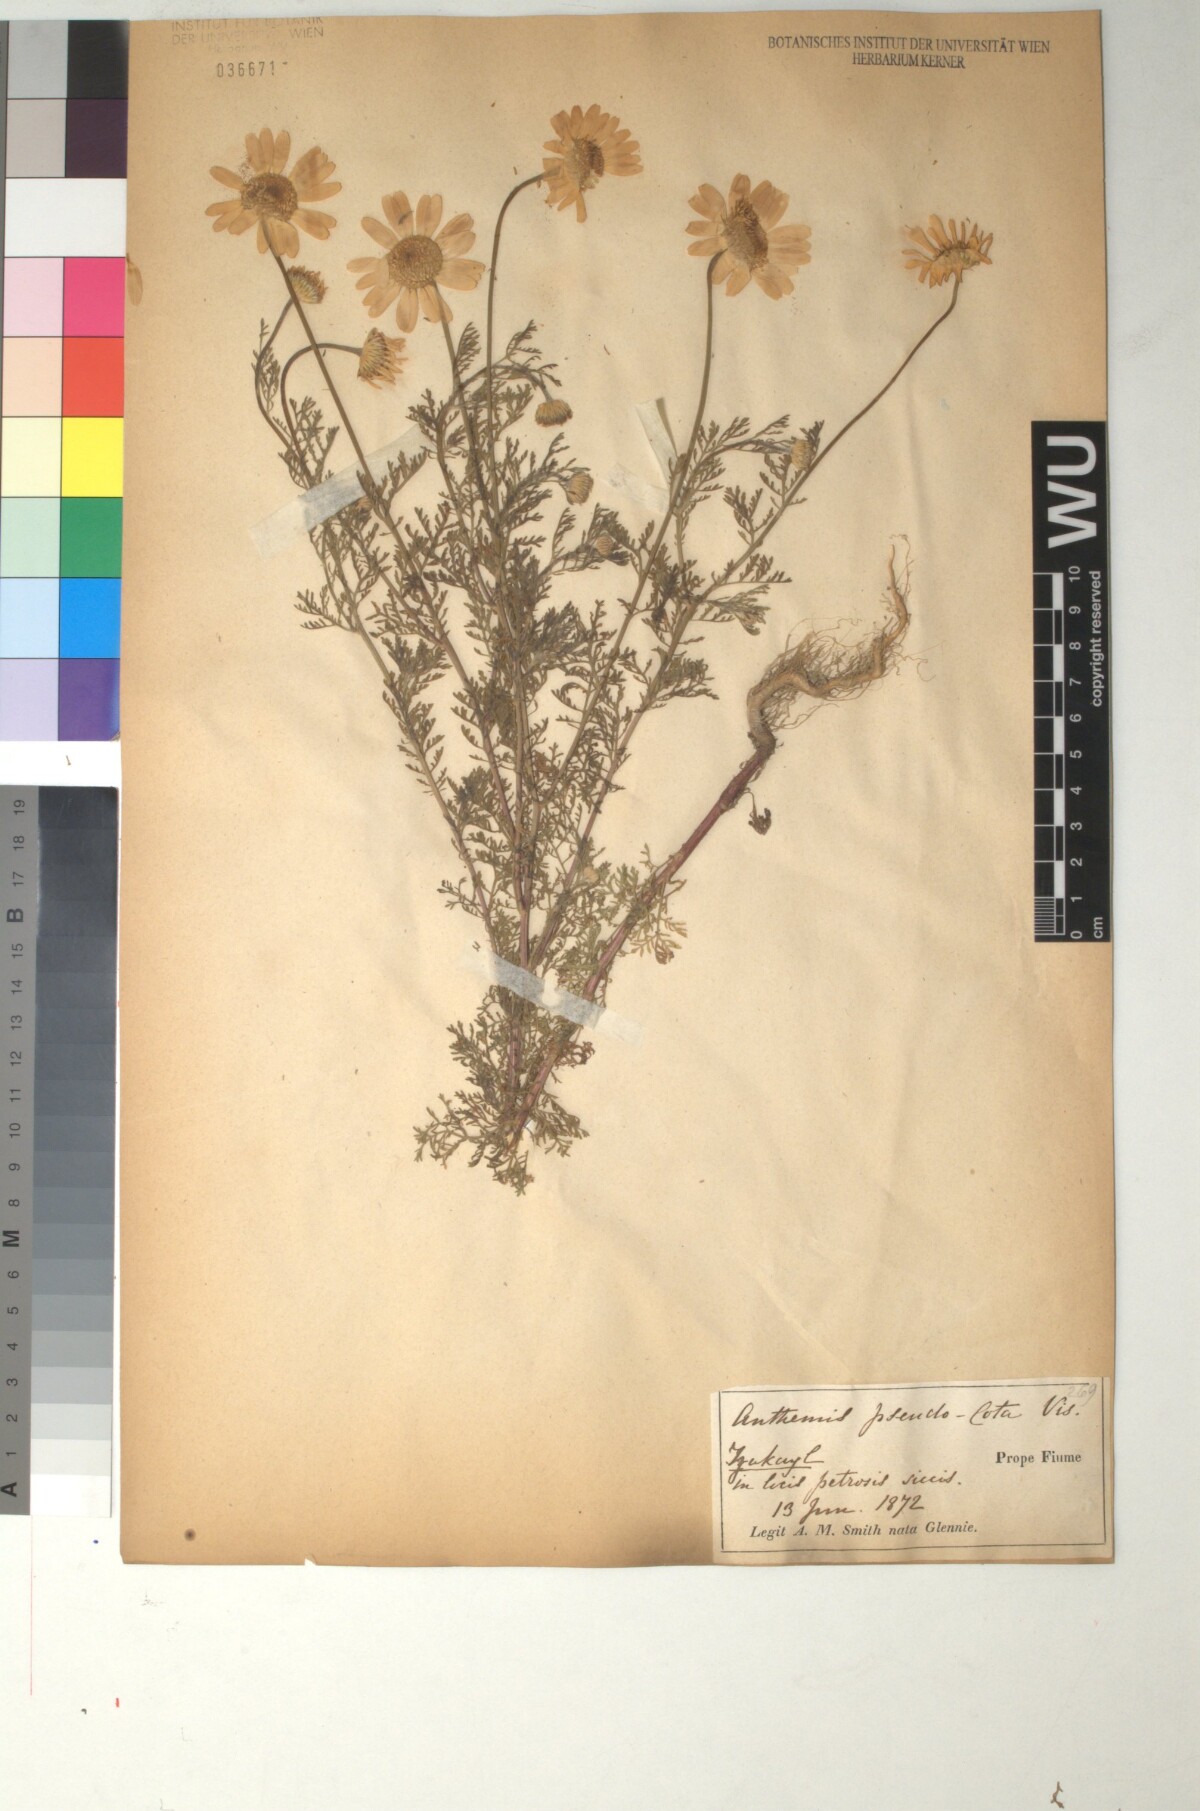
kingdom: Plantae
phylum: Tracheophyta
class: Magnoliopsida
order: Asterales
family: Asteraceae
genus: Cota
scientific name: Cota segetalis
